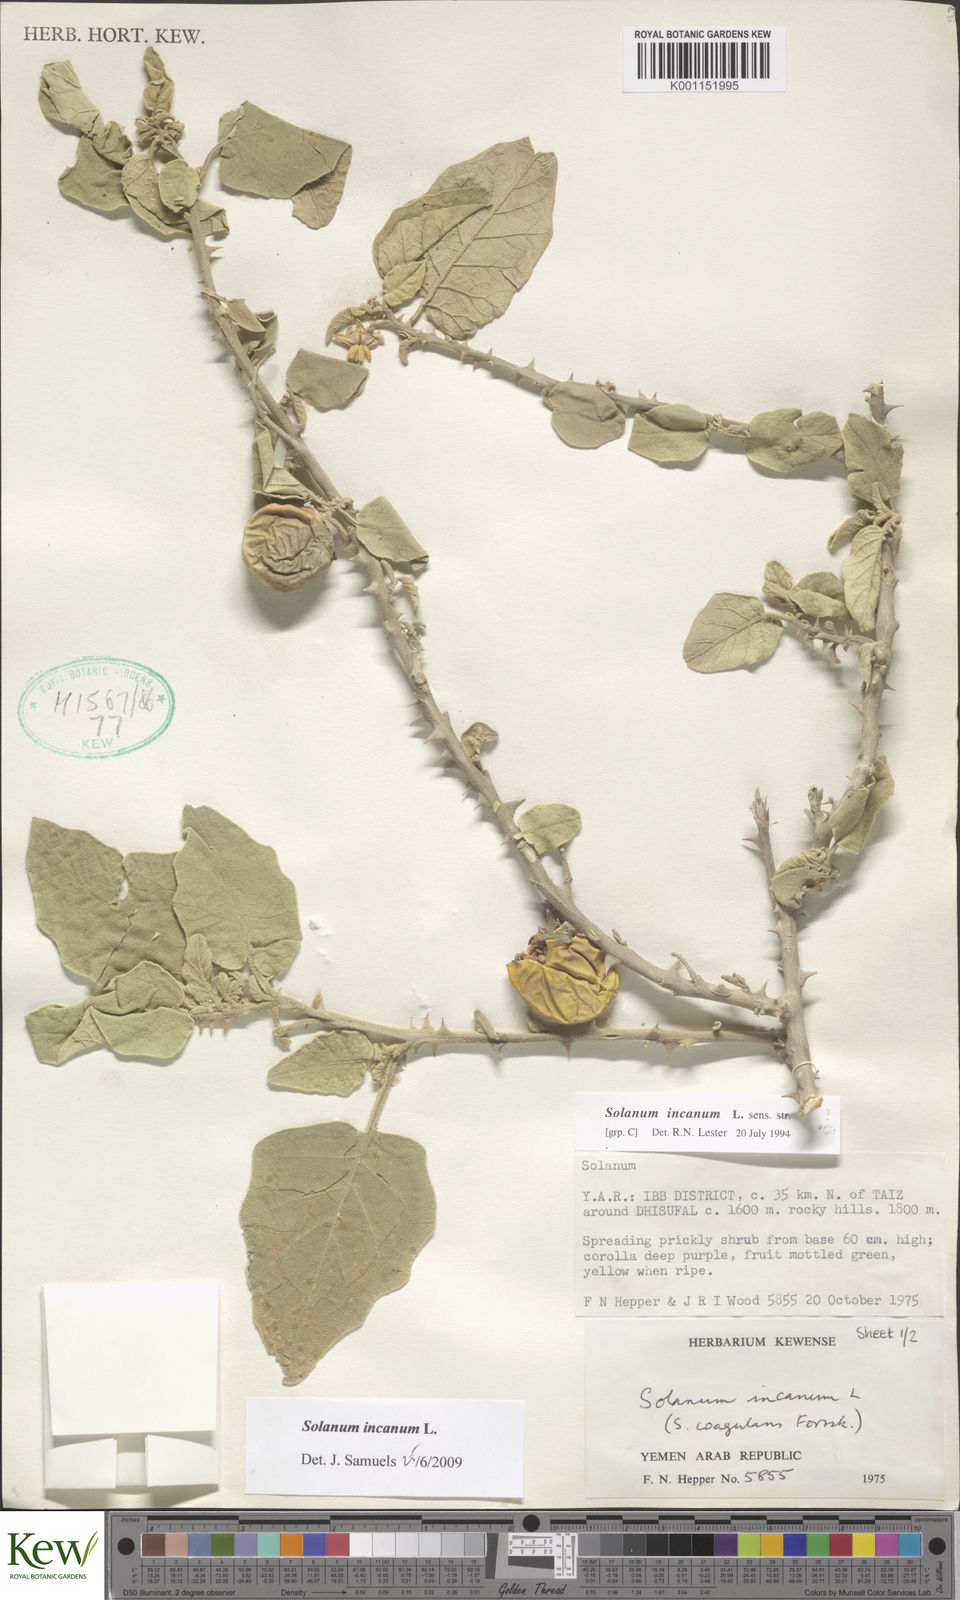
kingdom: Plantae
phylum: Tracheophyta
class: Magnoliopsida
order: Solanales
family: Solanaceae
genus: Solanum
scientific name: Solanum incanum
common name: Bitter apple
